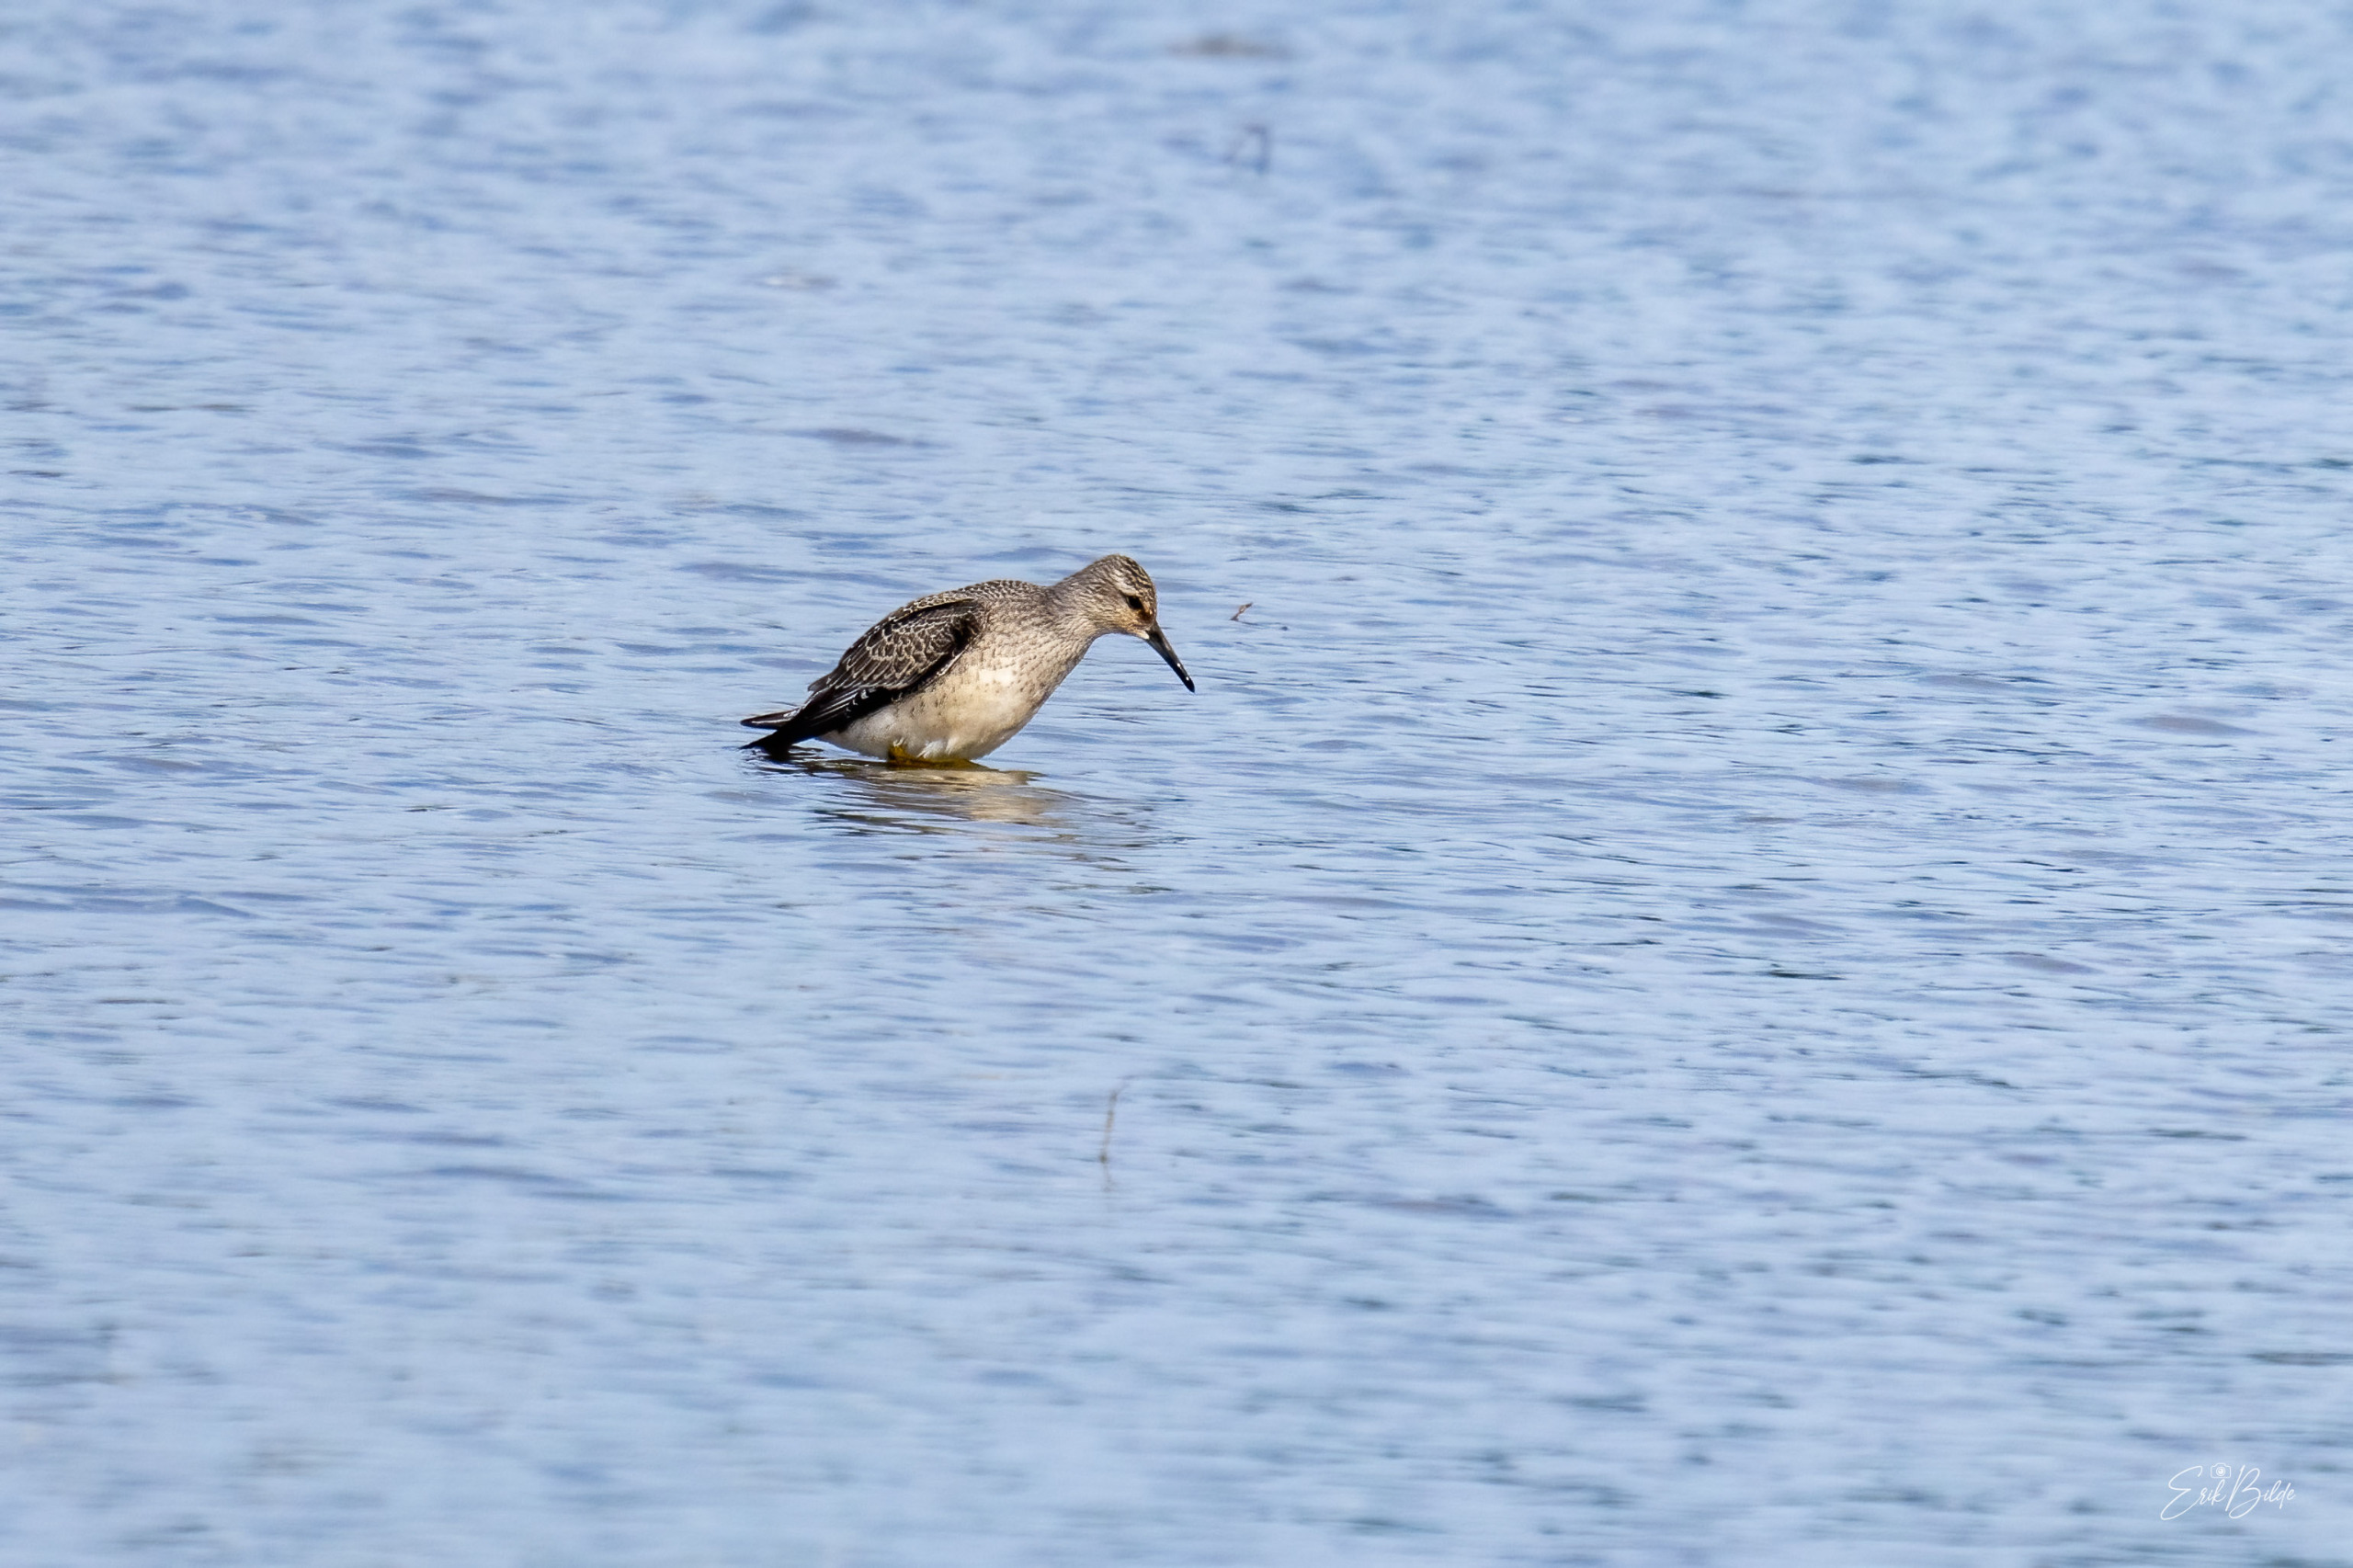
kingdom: Animalia
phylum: Chordata
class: Aves
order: Charadriiformes
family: Scolopacidae
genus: Calidris
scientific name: Calidris canutus
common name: Islandsk ryle
